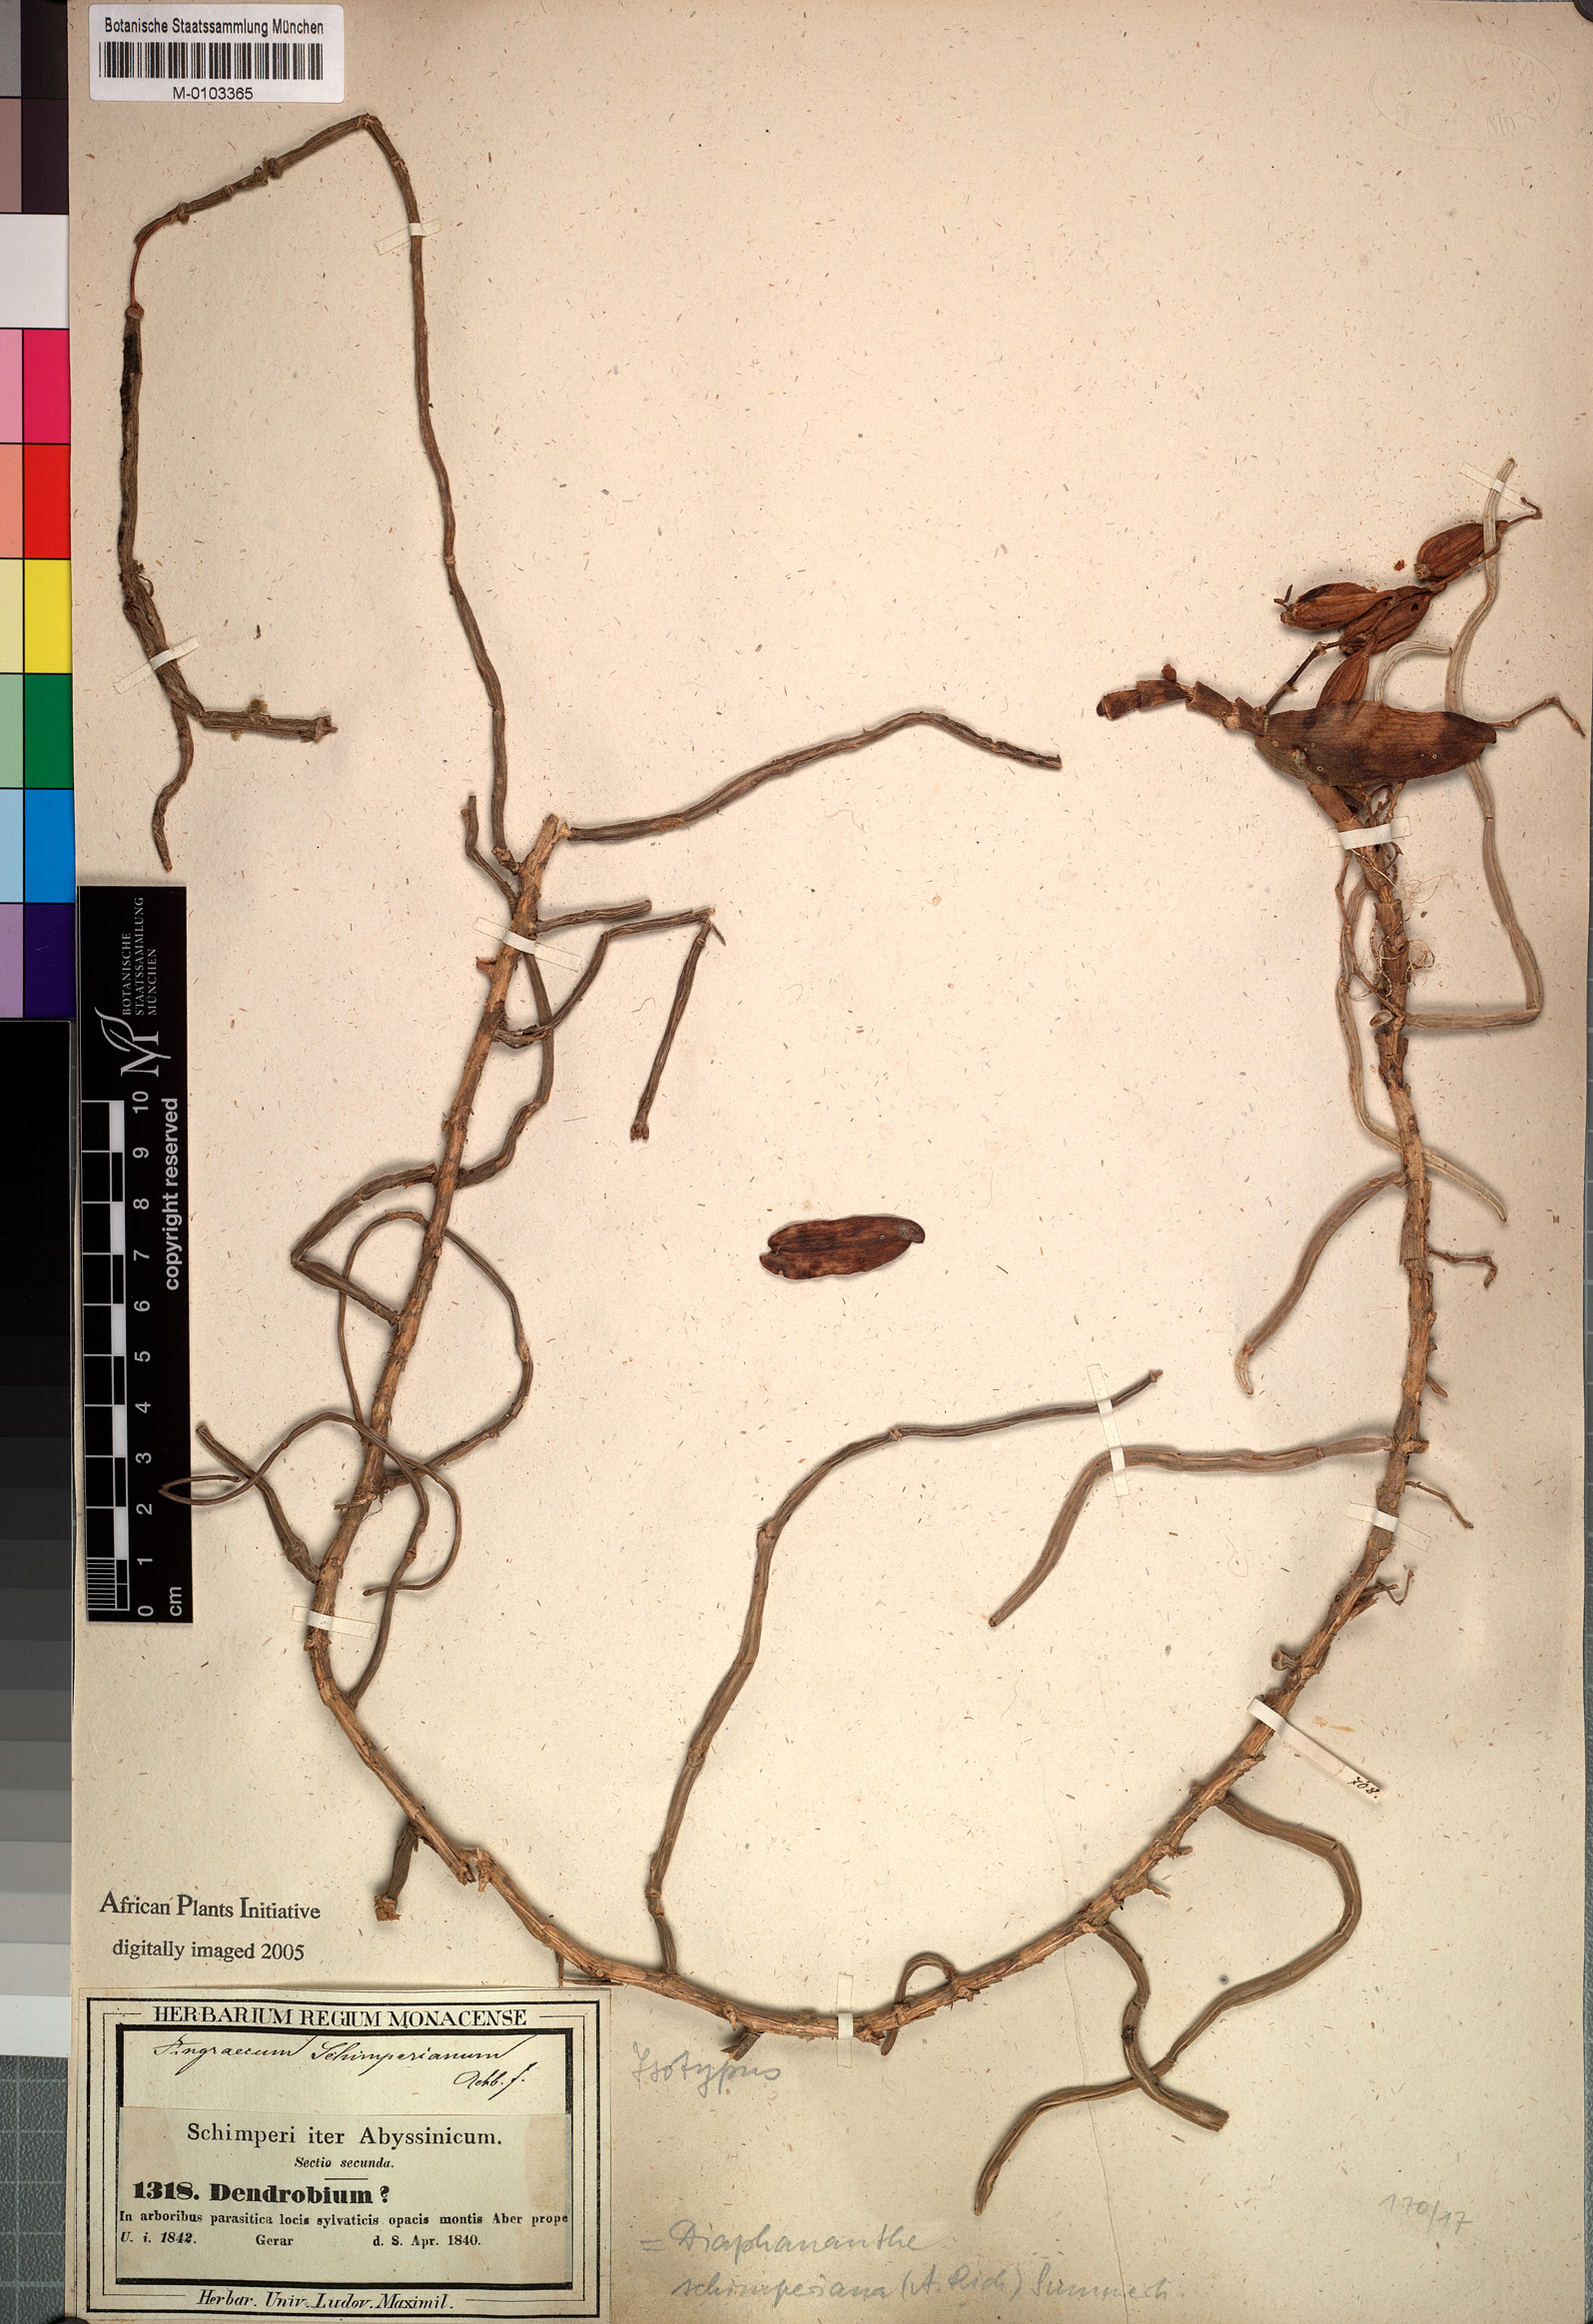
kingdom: Plantae
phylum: Tracheophyta
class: Liliopsida
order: Asparagales
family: Orchidaceae
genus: Rhipidoglossum
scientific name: Rhipidoglossum schimperianum
